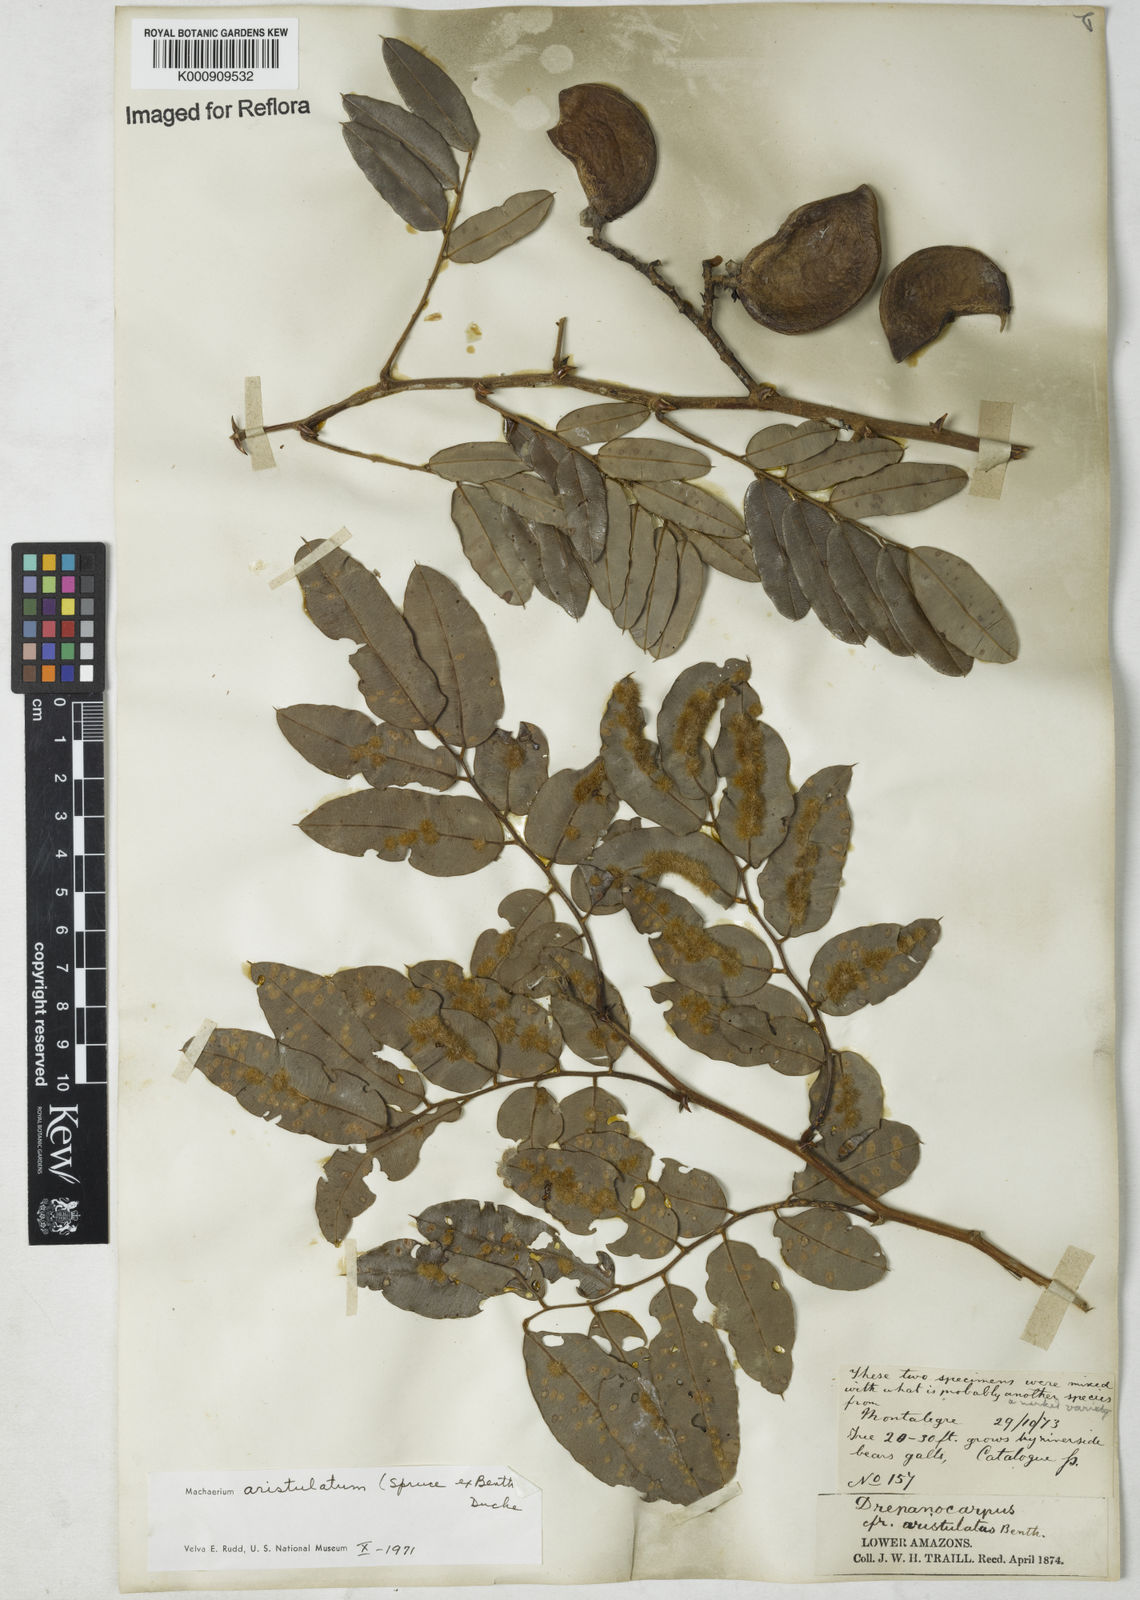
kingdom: Plantae
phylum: Tracheophyta
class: Magnoliopsida
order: Fabales
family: Fabaceae
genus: Machaerium
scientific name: Machaerium aristulatum
